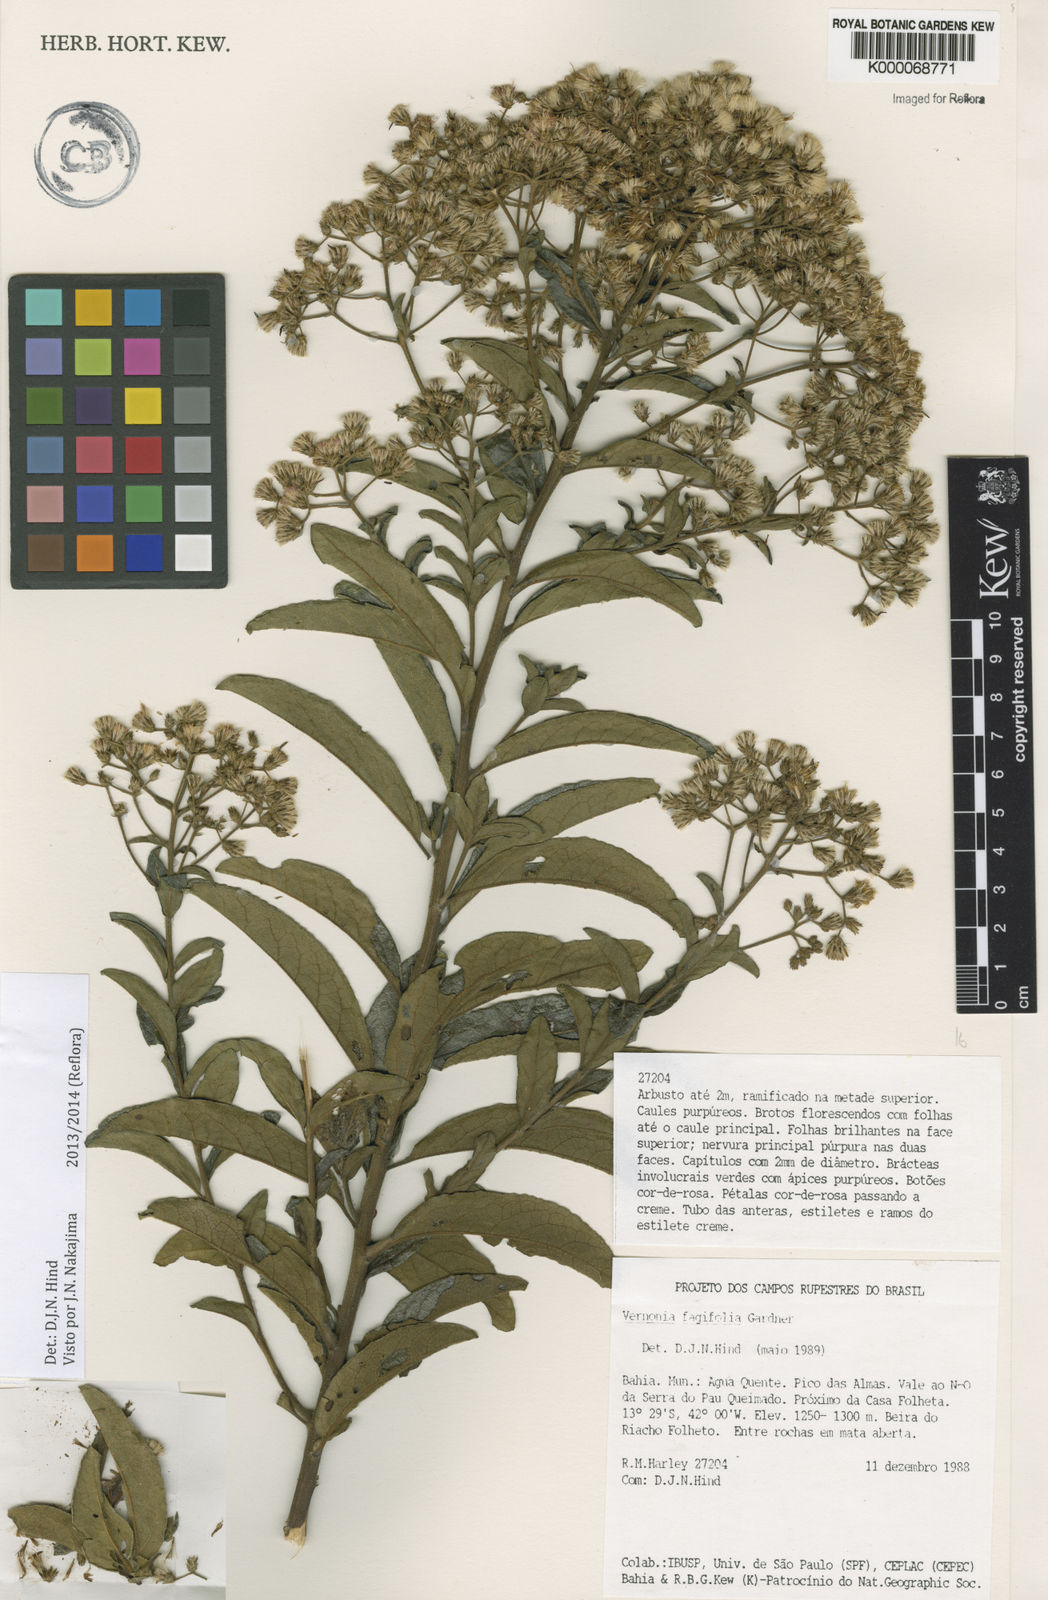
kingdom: Plantae
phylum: Tracheophyta
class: Magnoliopsida
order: Asterales
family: Asteraceae
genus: Vernonanthura
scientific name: Vernonanthura fagifolia
